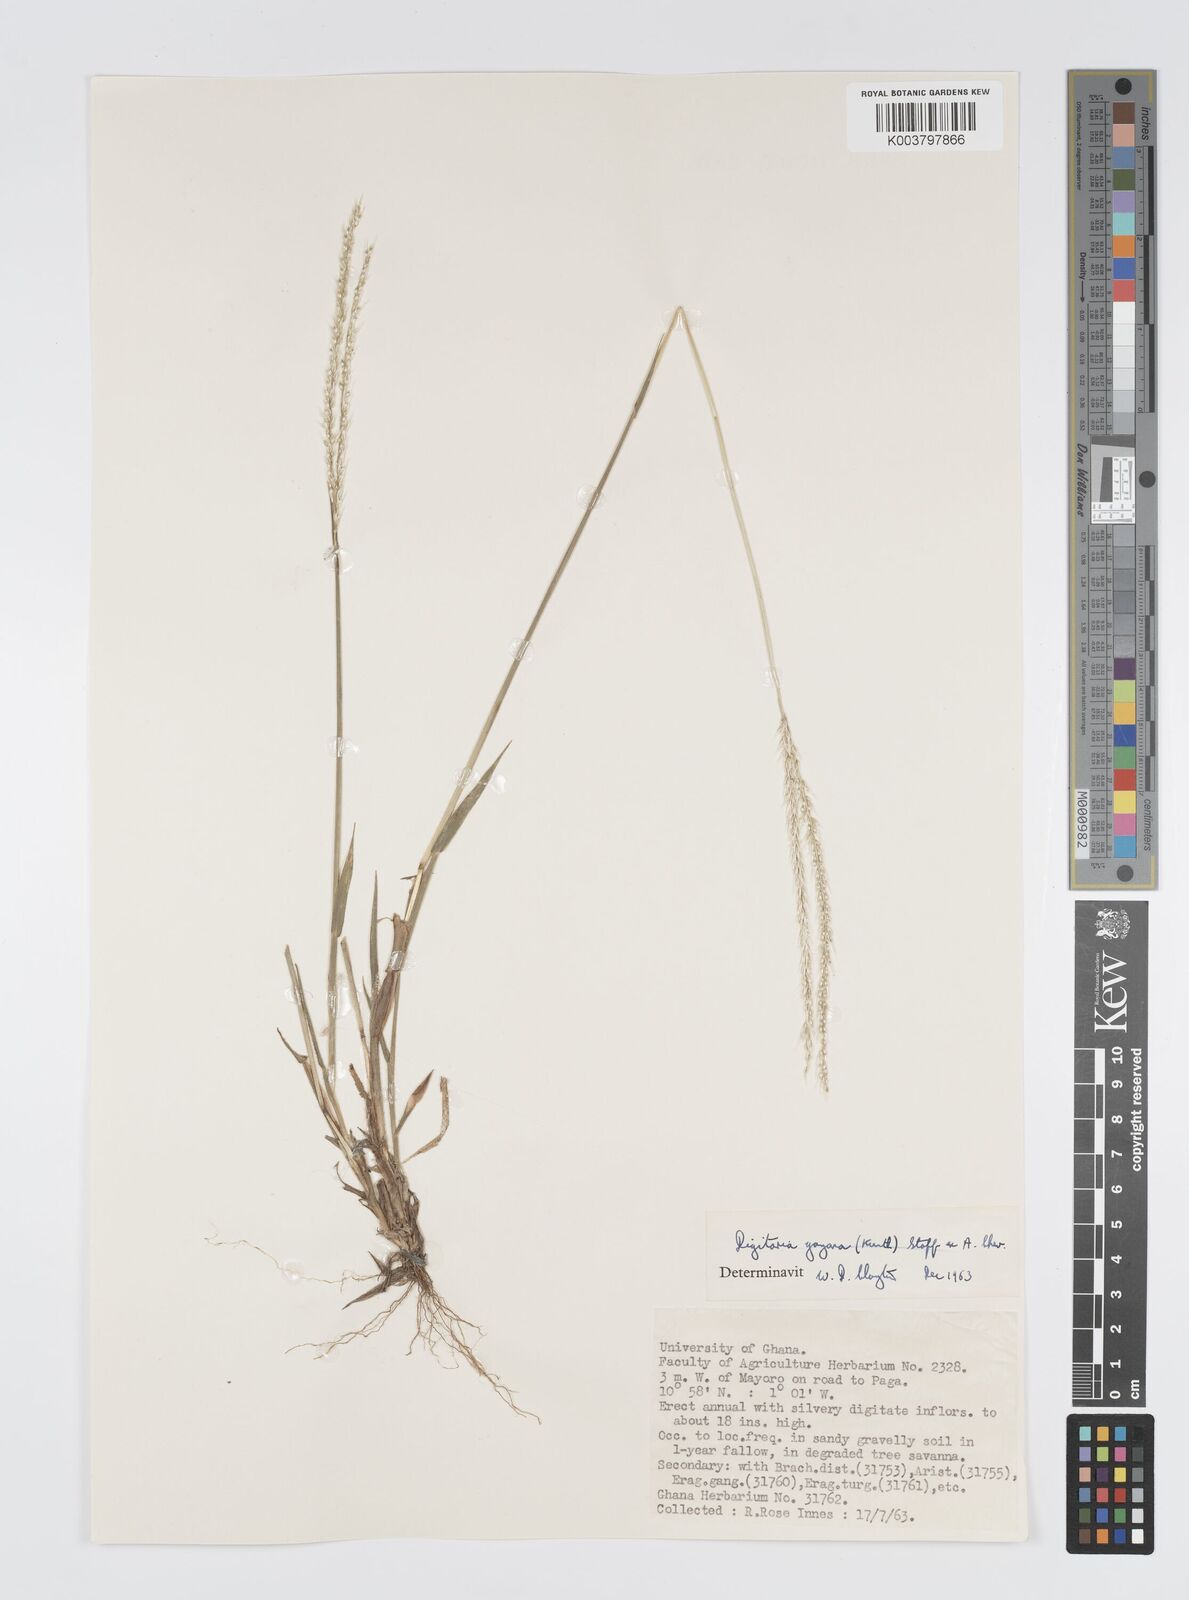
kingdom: Plantae
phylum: Tracheophyta
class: Liliopsida
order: Poales
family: Poaceae
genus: Digitaria
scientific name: Digitaria gayana
